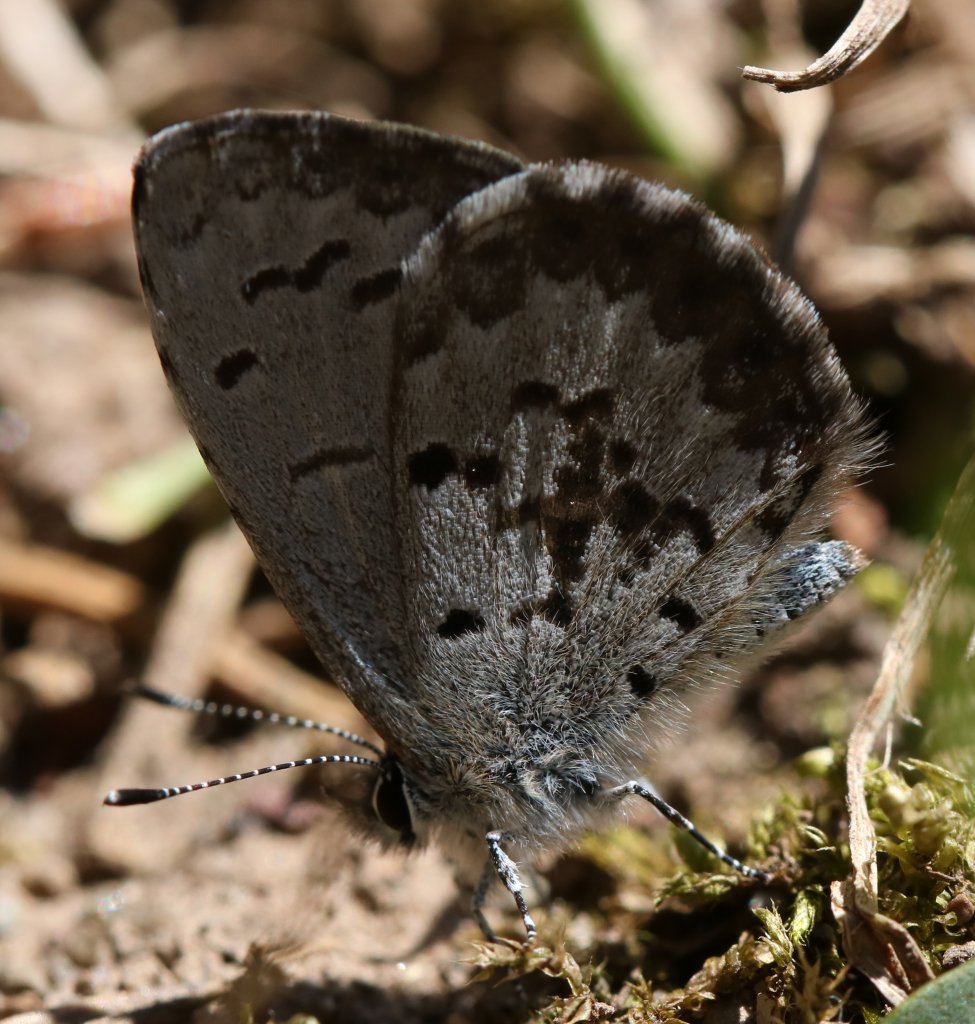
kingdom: Animalia
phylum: Arthropoda
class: Insecta
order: Lepidoptera
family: Lycaenidae
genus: Celastrina
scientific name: Celastrina lucia
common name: Northern Spring Azure
